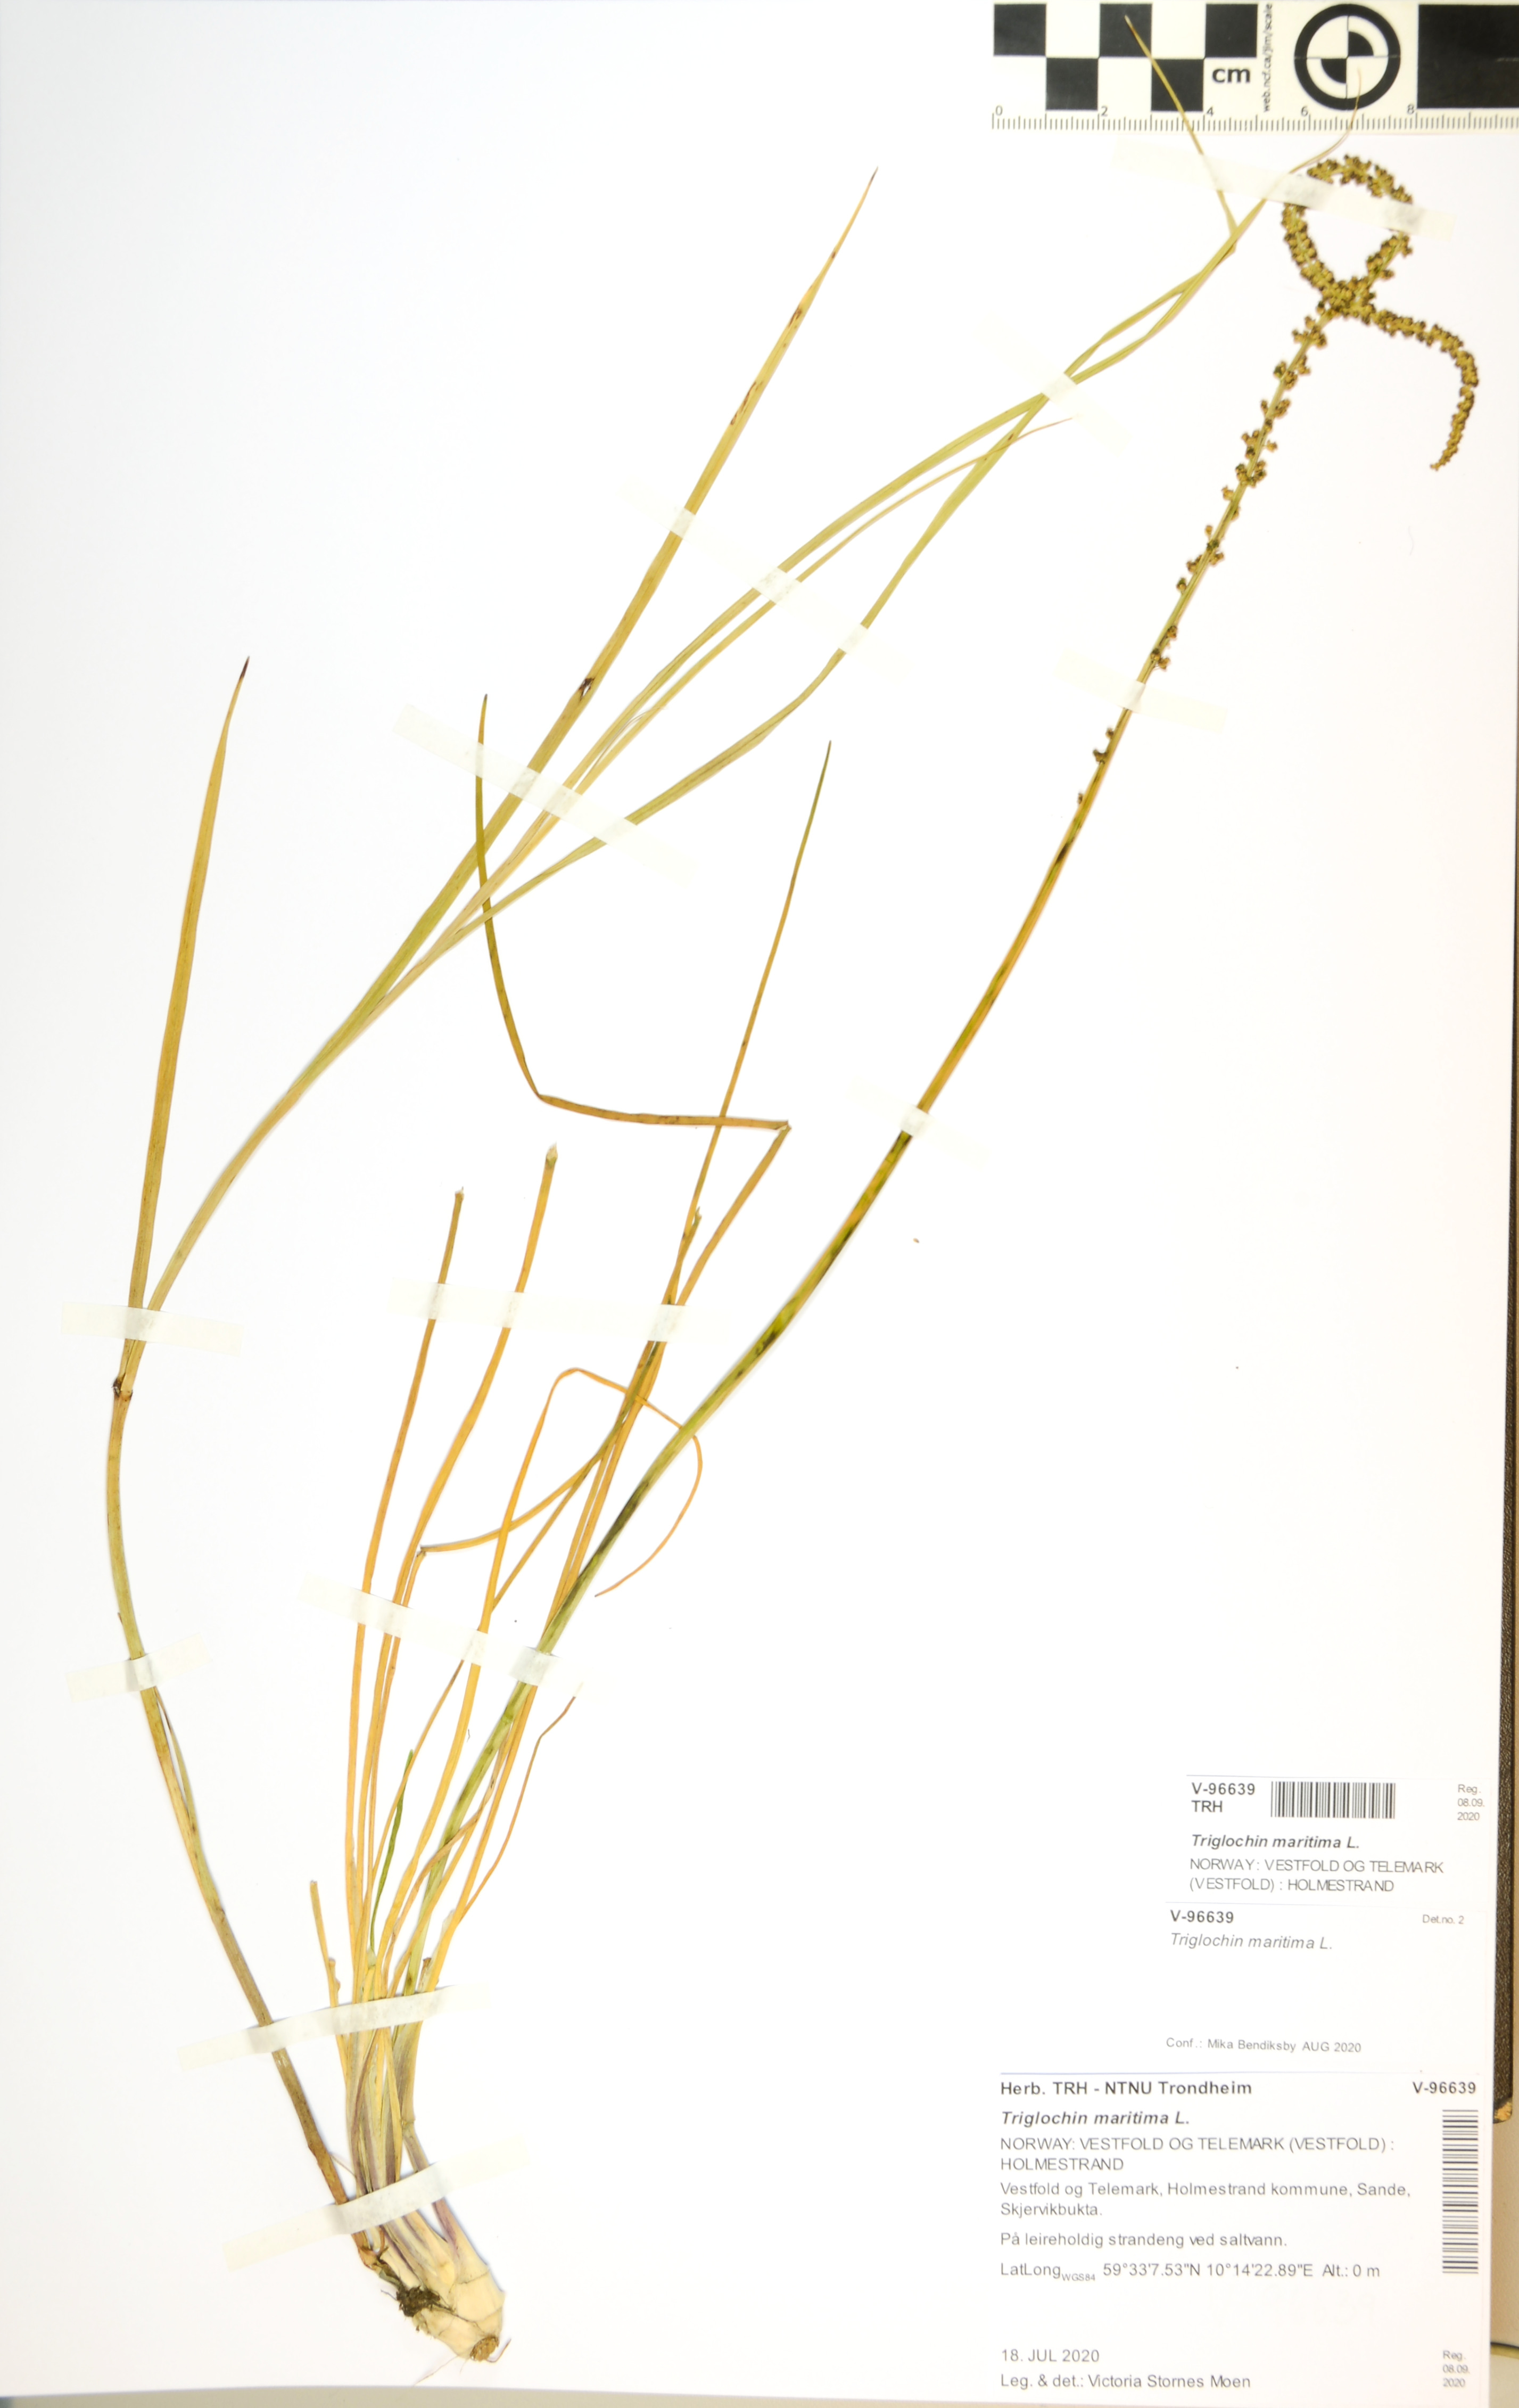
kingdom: Plantae
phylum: Tracheophyta
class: Liliopsida
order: Alismatales
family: Juncaginaceae
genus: Triglochin
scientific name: Triglochin maritima
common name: Sea arrowgrass
